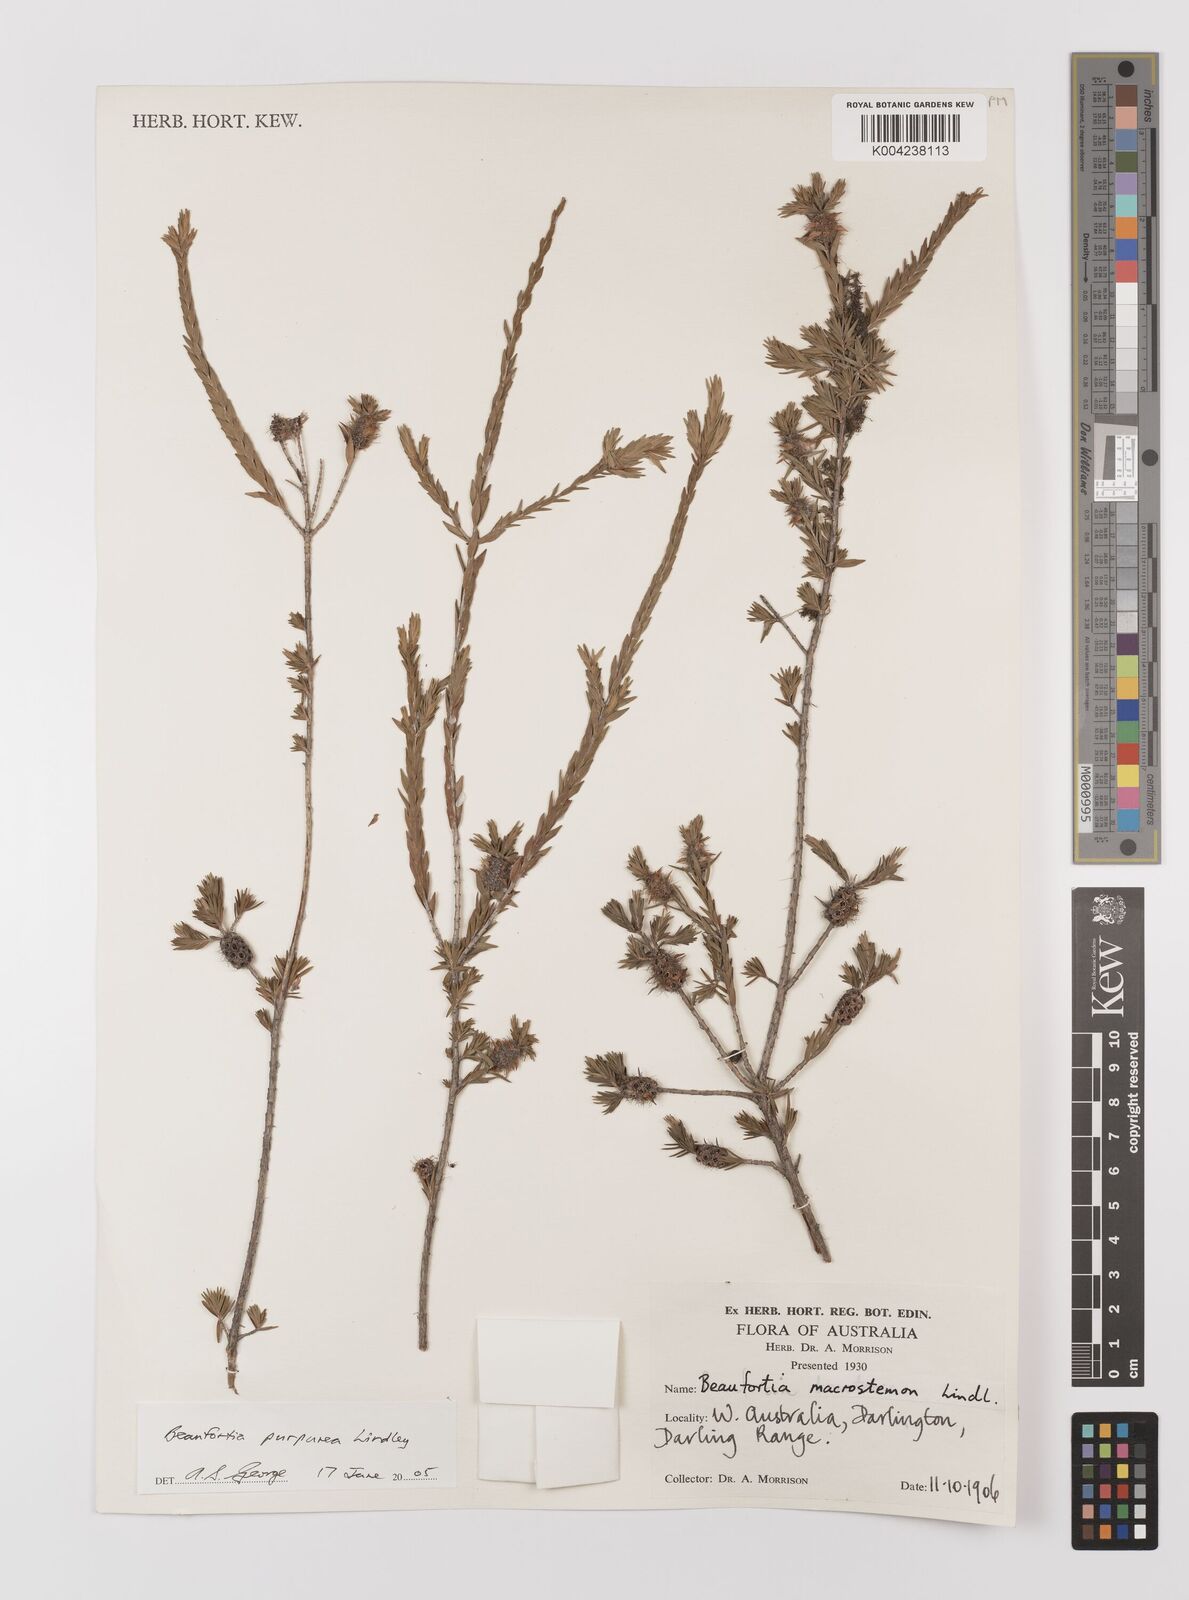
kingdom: Plantae
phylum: Tracheophyta
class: Magnoliopsida
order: Myrtales
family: Myrtaceae
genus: Melaleuca
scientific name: Melaleuca purpurea
